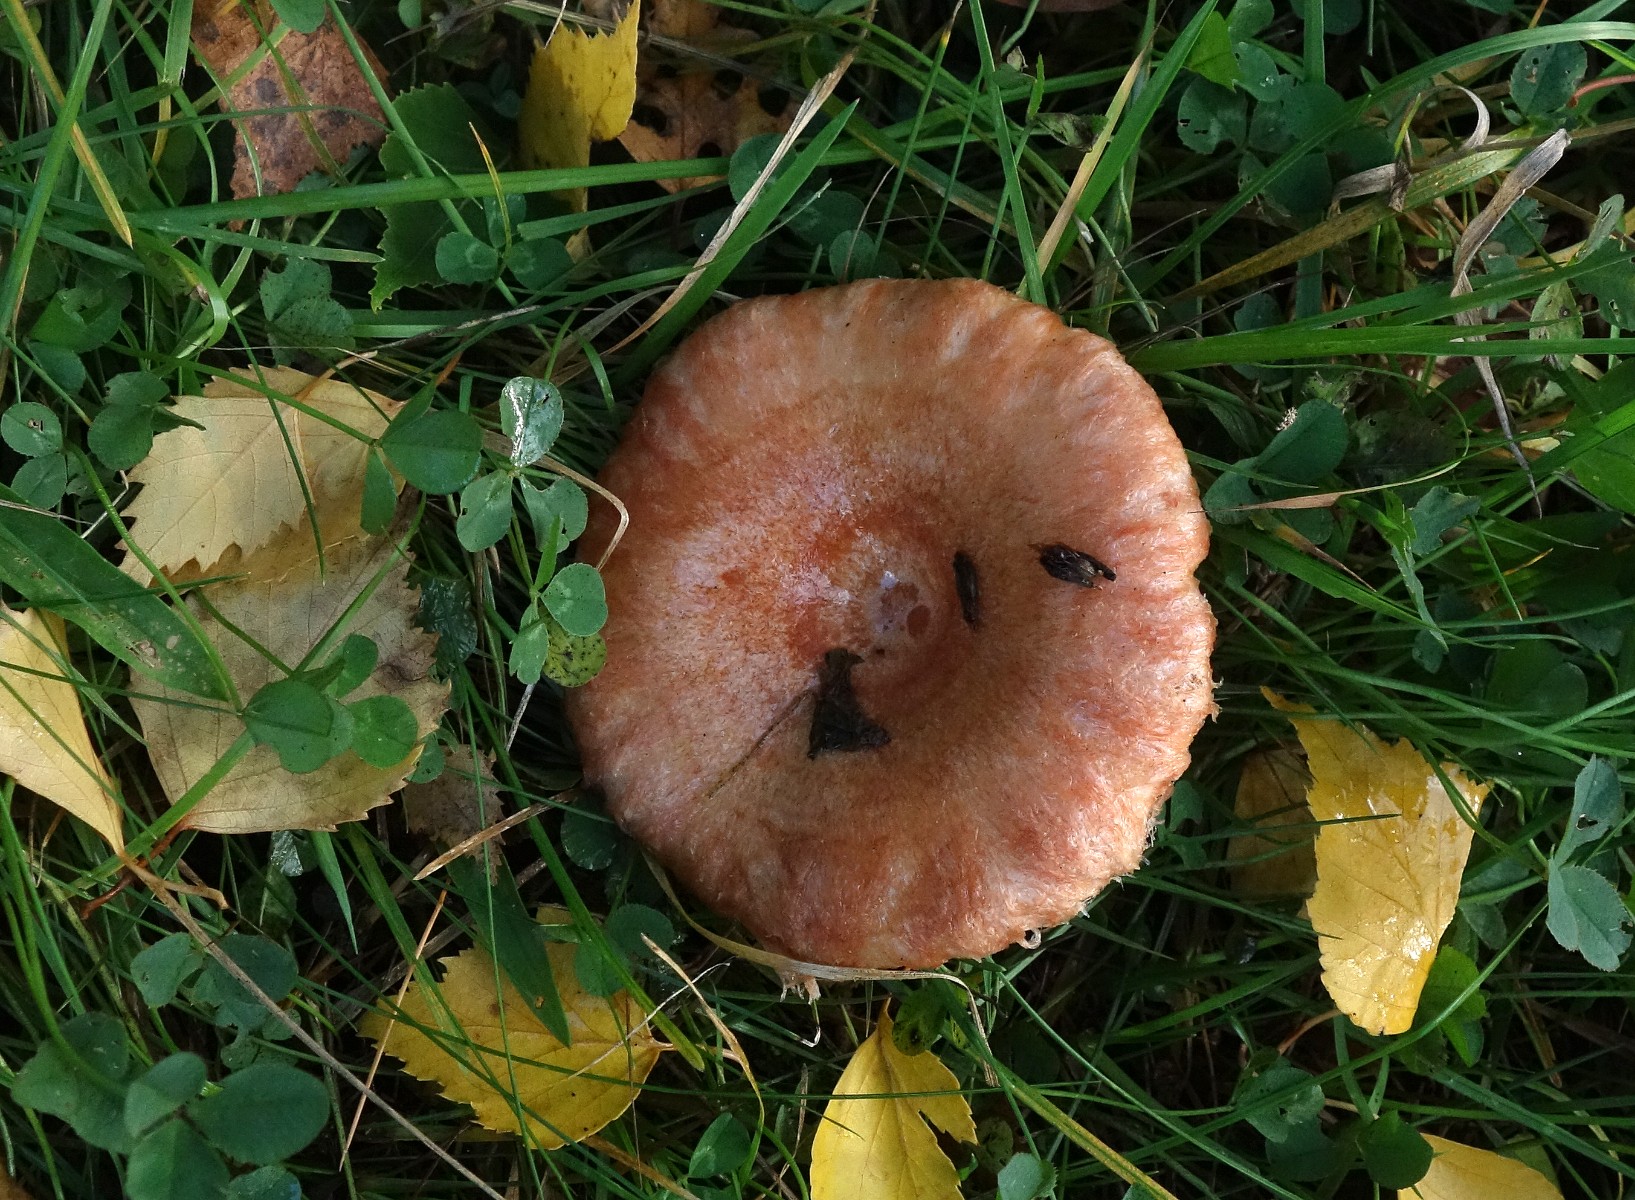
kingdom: Fungi
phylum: Basidiomycota
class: Agaricomycetes
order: Russulales
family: Russulaceae
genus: Lactarius
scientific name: Lactarius torminosus
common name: skægget mælkehat
